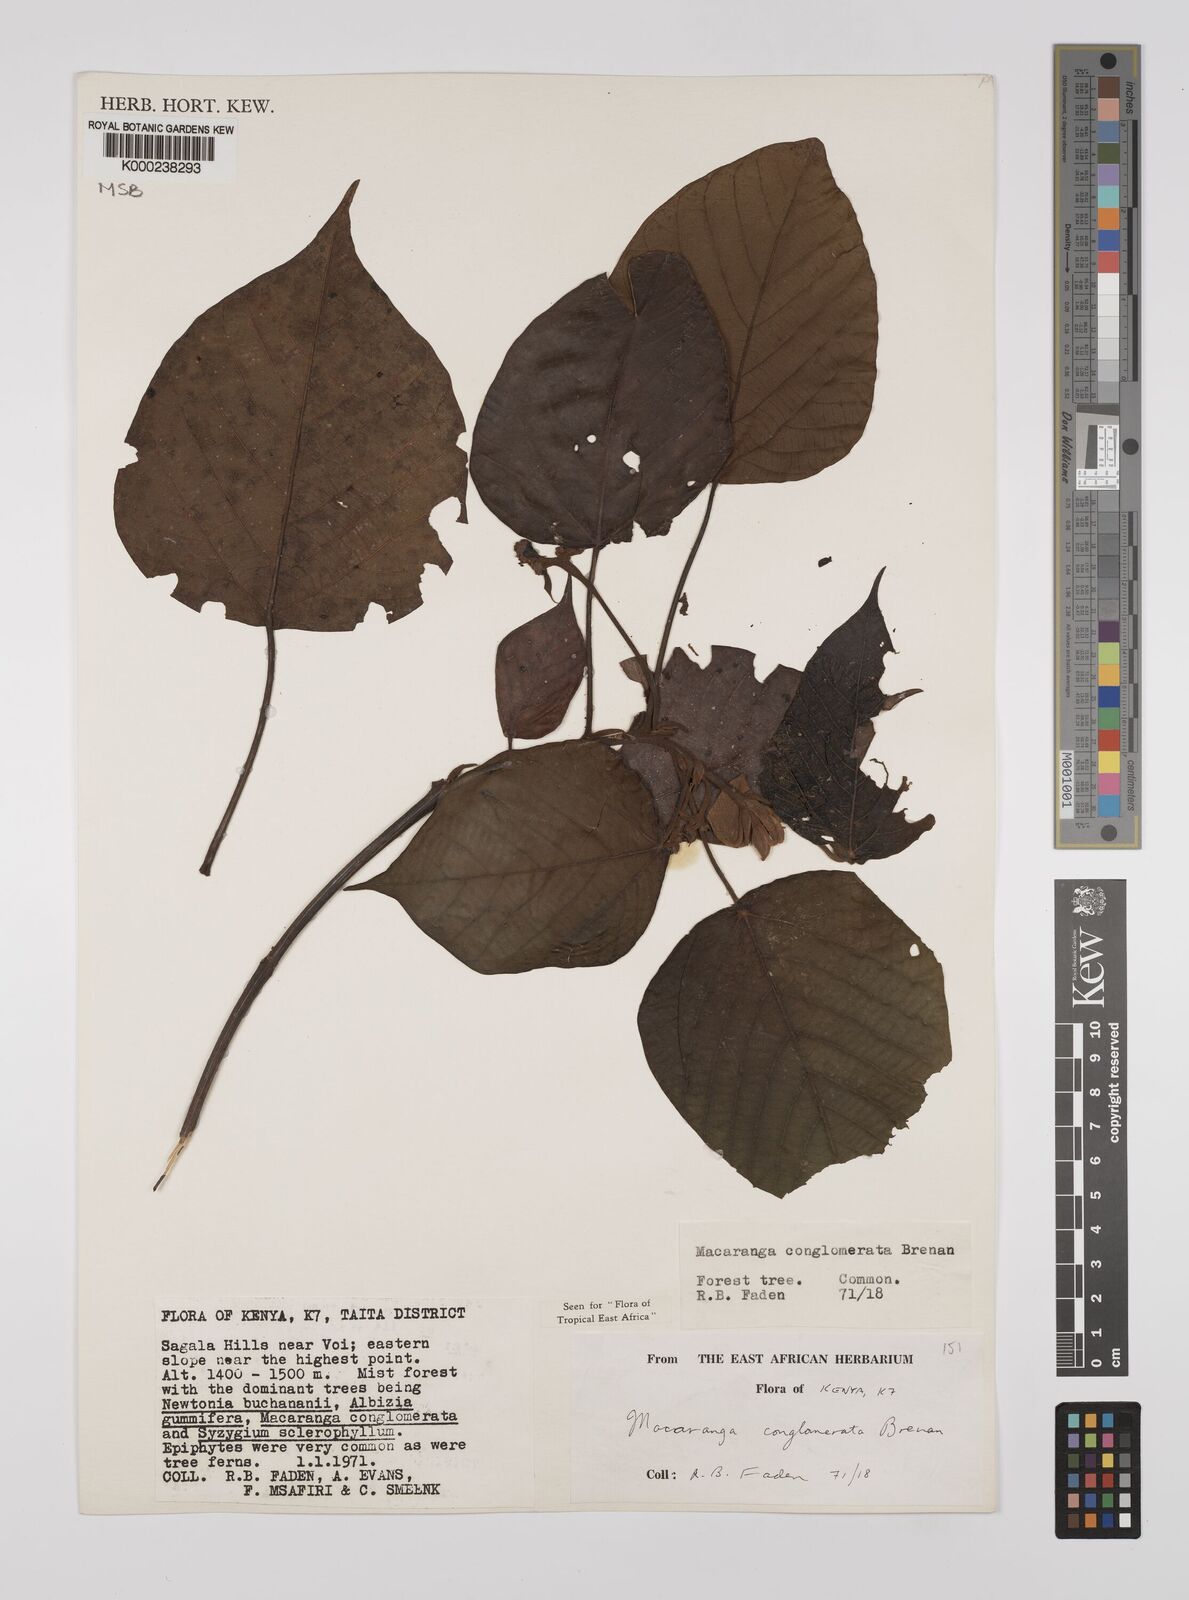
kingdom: Plantae
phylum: Tracheophyta
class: Magnoliopsida
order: Malpighiales
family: Euphorbiaceae
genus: Macaranga
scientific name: Macaranga conglomerata
